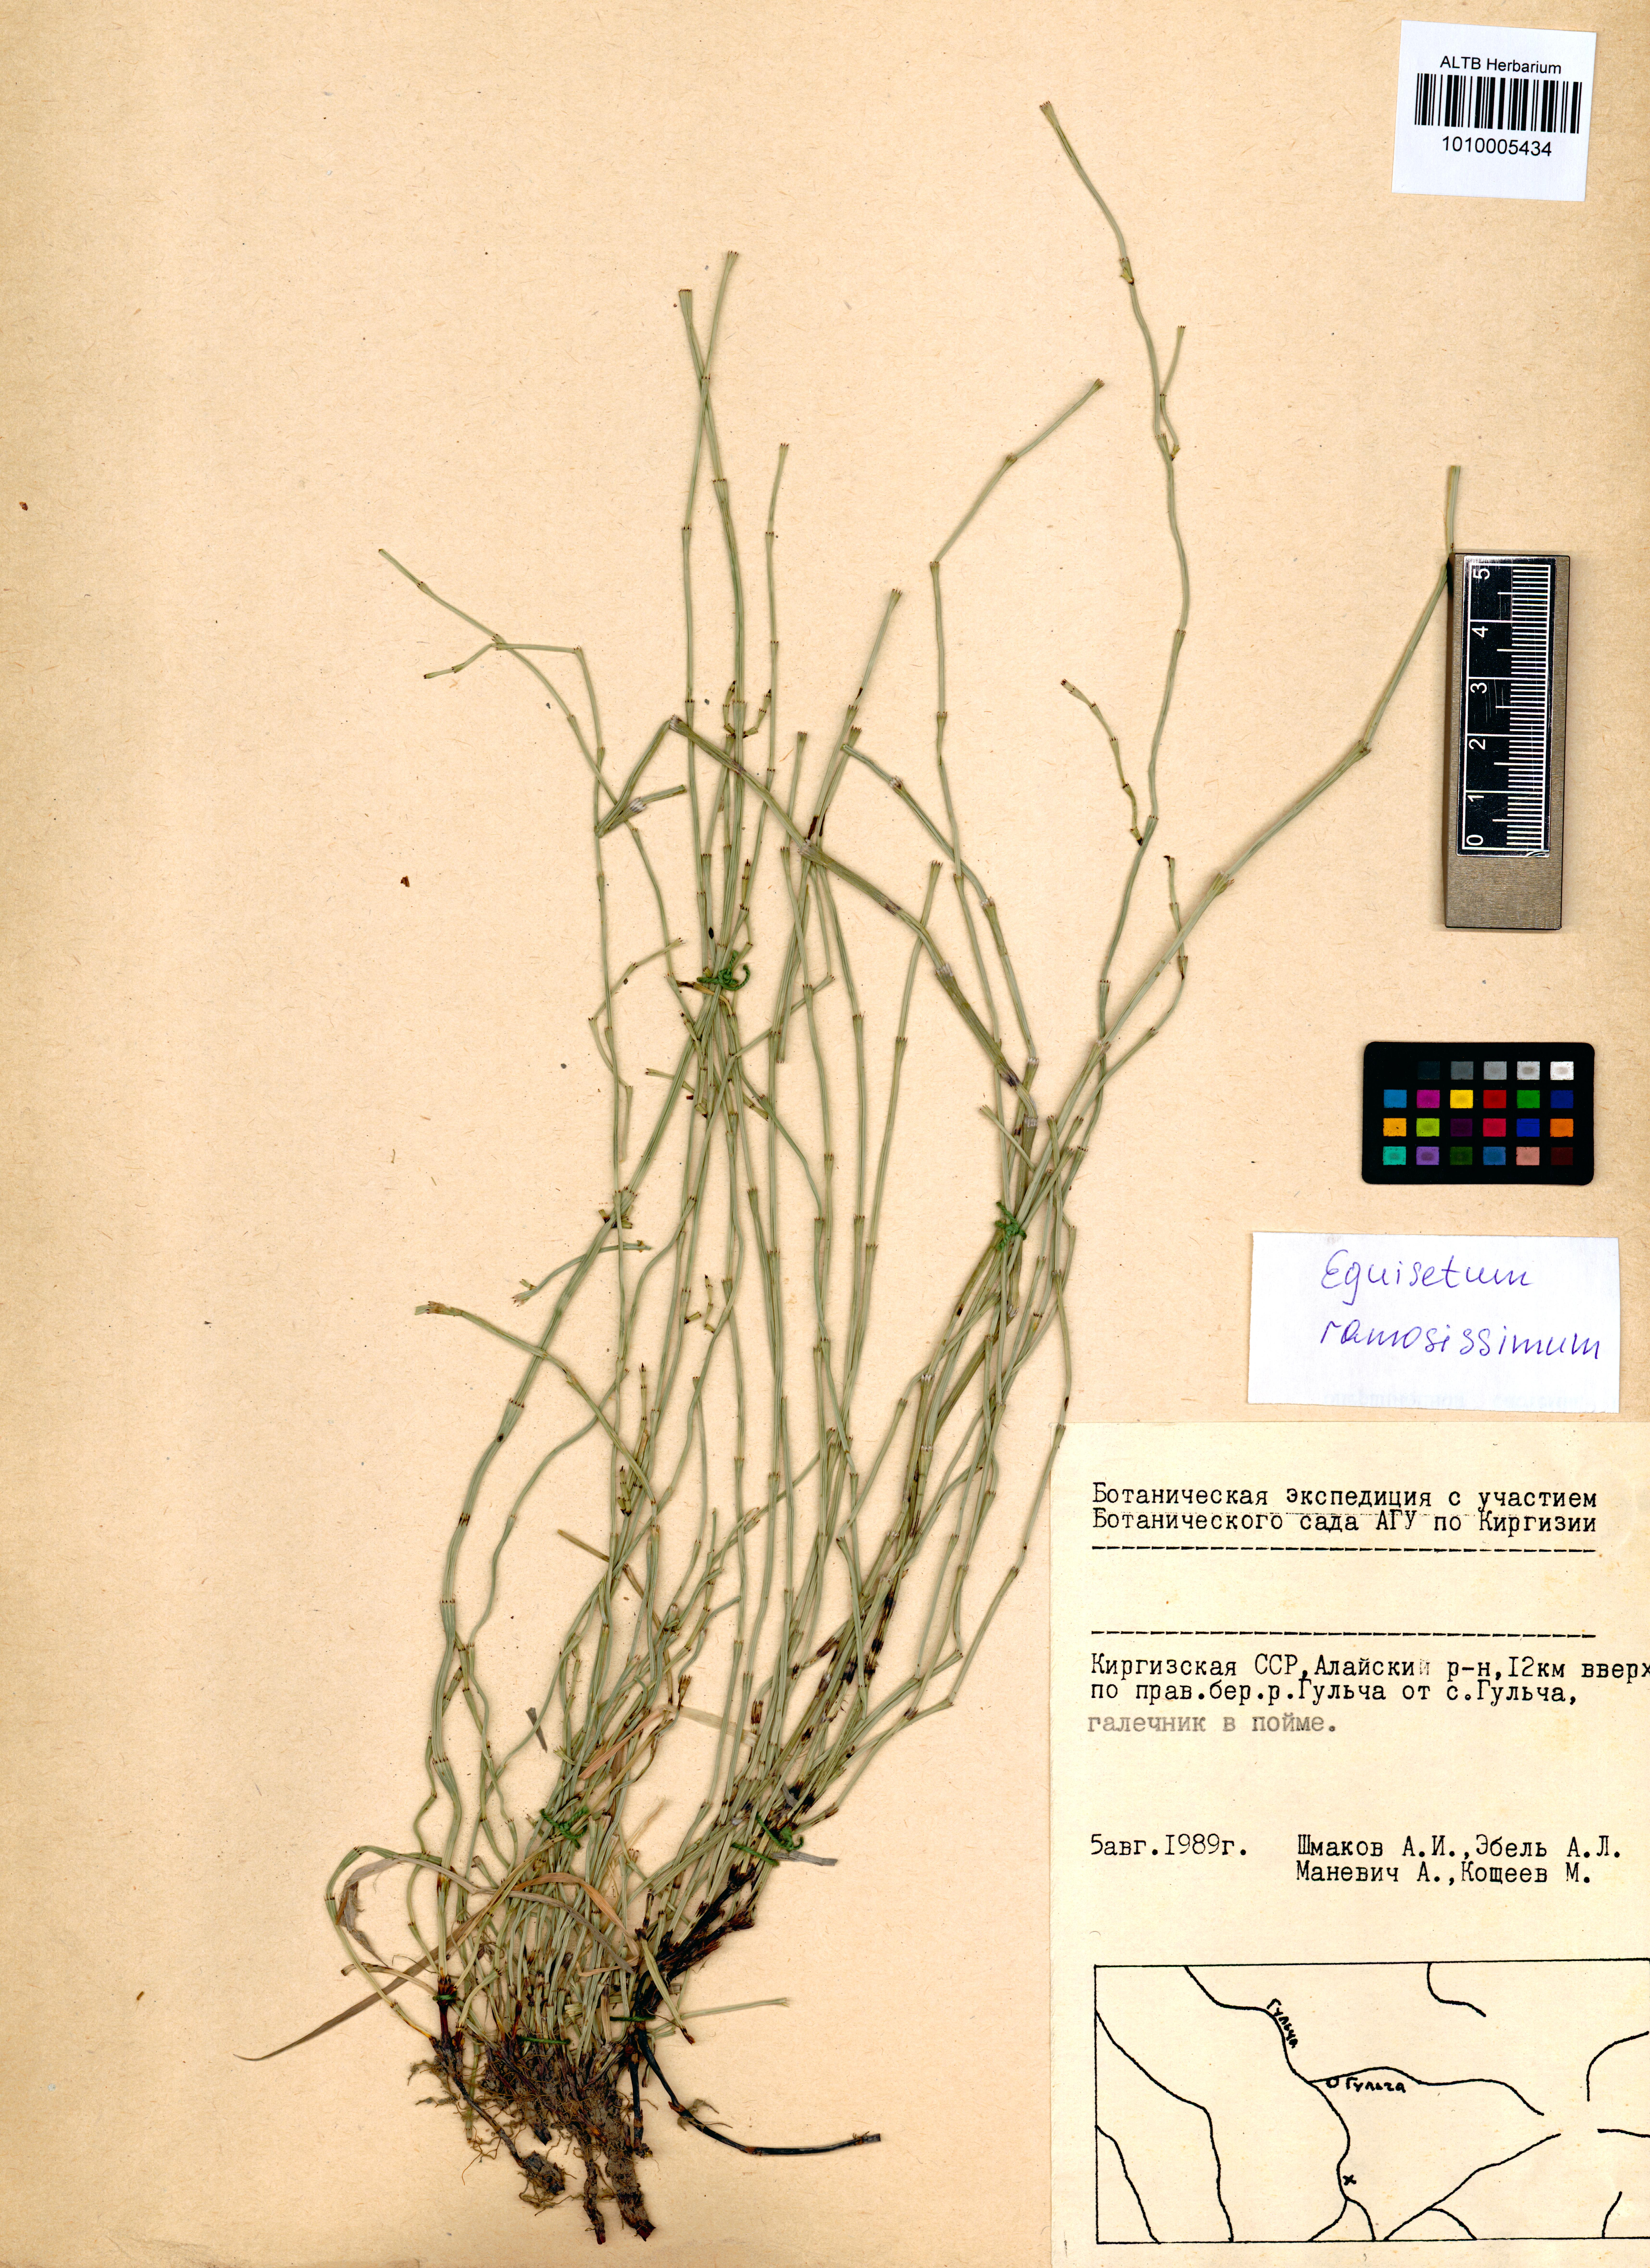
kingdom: Plantae
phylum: Tracheophyta
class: Polypodiopsida
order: Equisetales
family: Equisetaceae
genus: Equisetum
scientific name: Equisetum ramosissimum
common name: Branched horsetail
